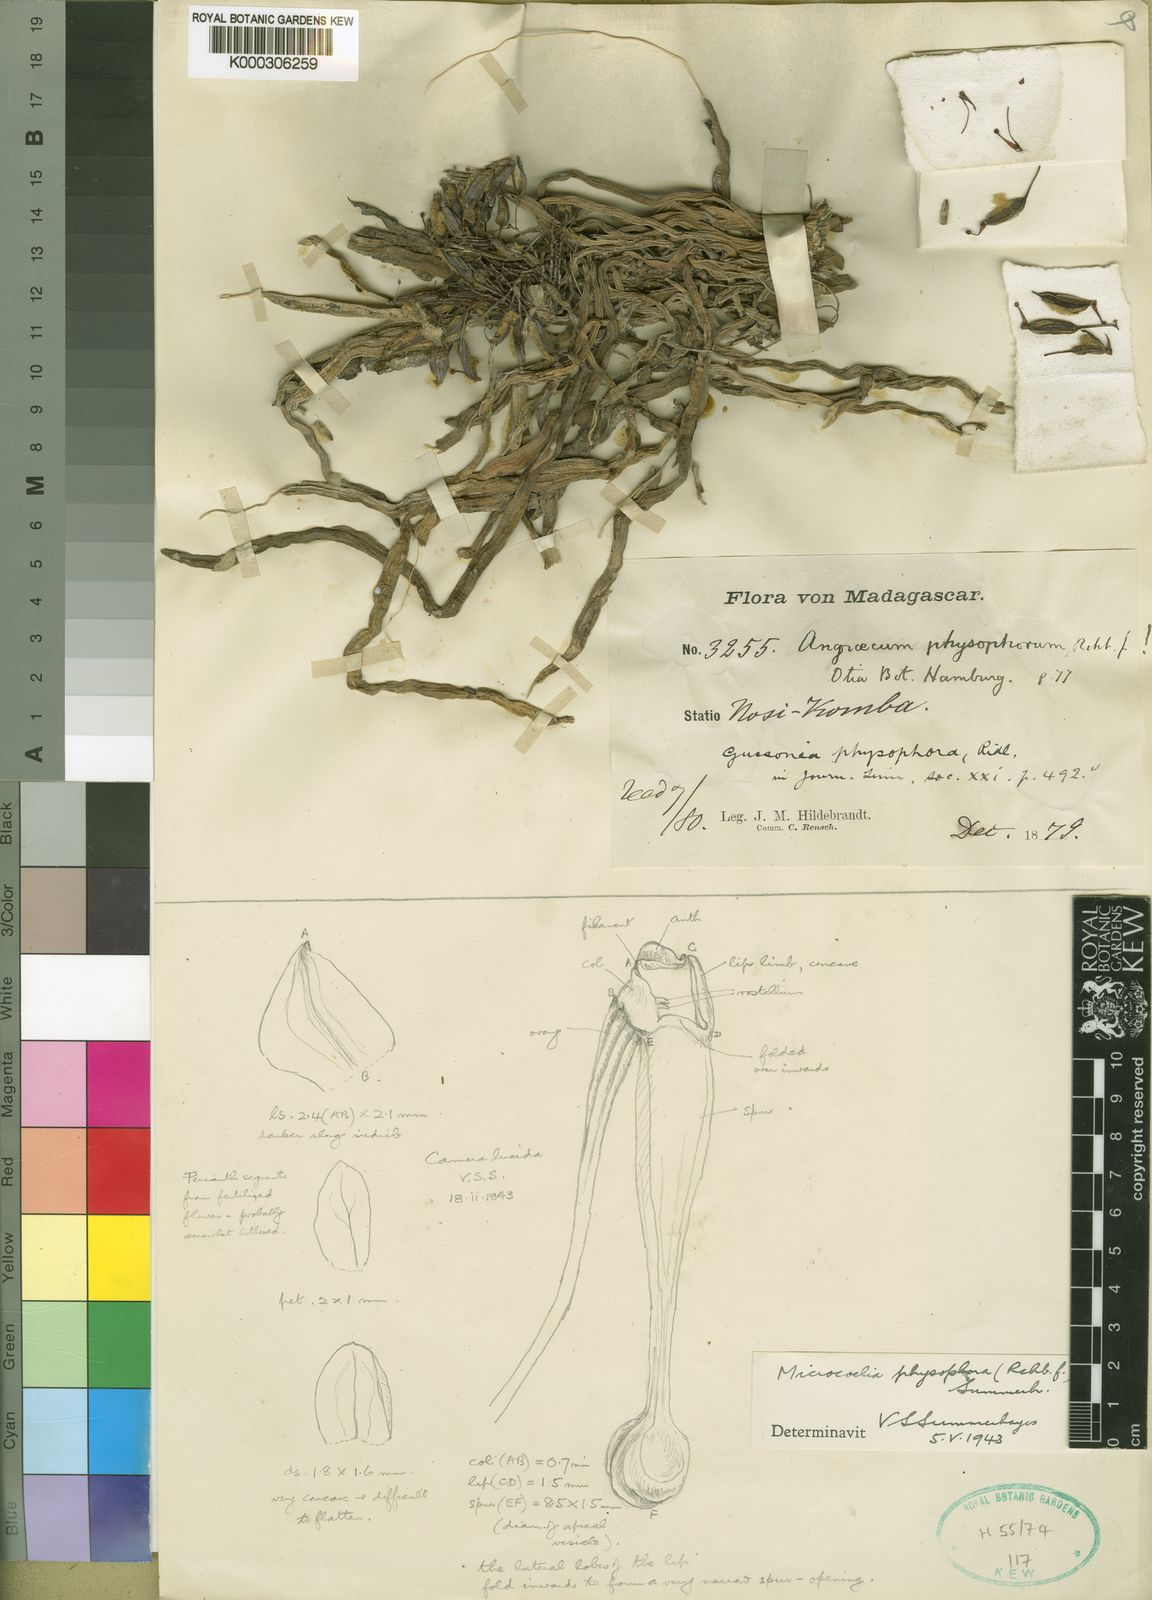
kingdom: Plantae
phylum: Tracheophyta
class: Liliopsida
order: Asparagales
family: Orchidaceae
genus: Microcoelia
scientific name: Microcoelia physophora
